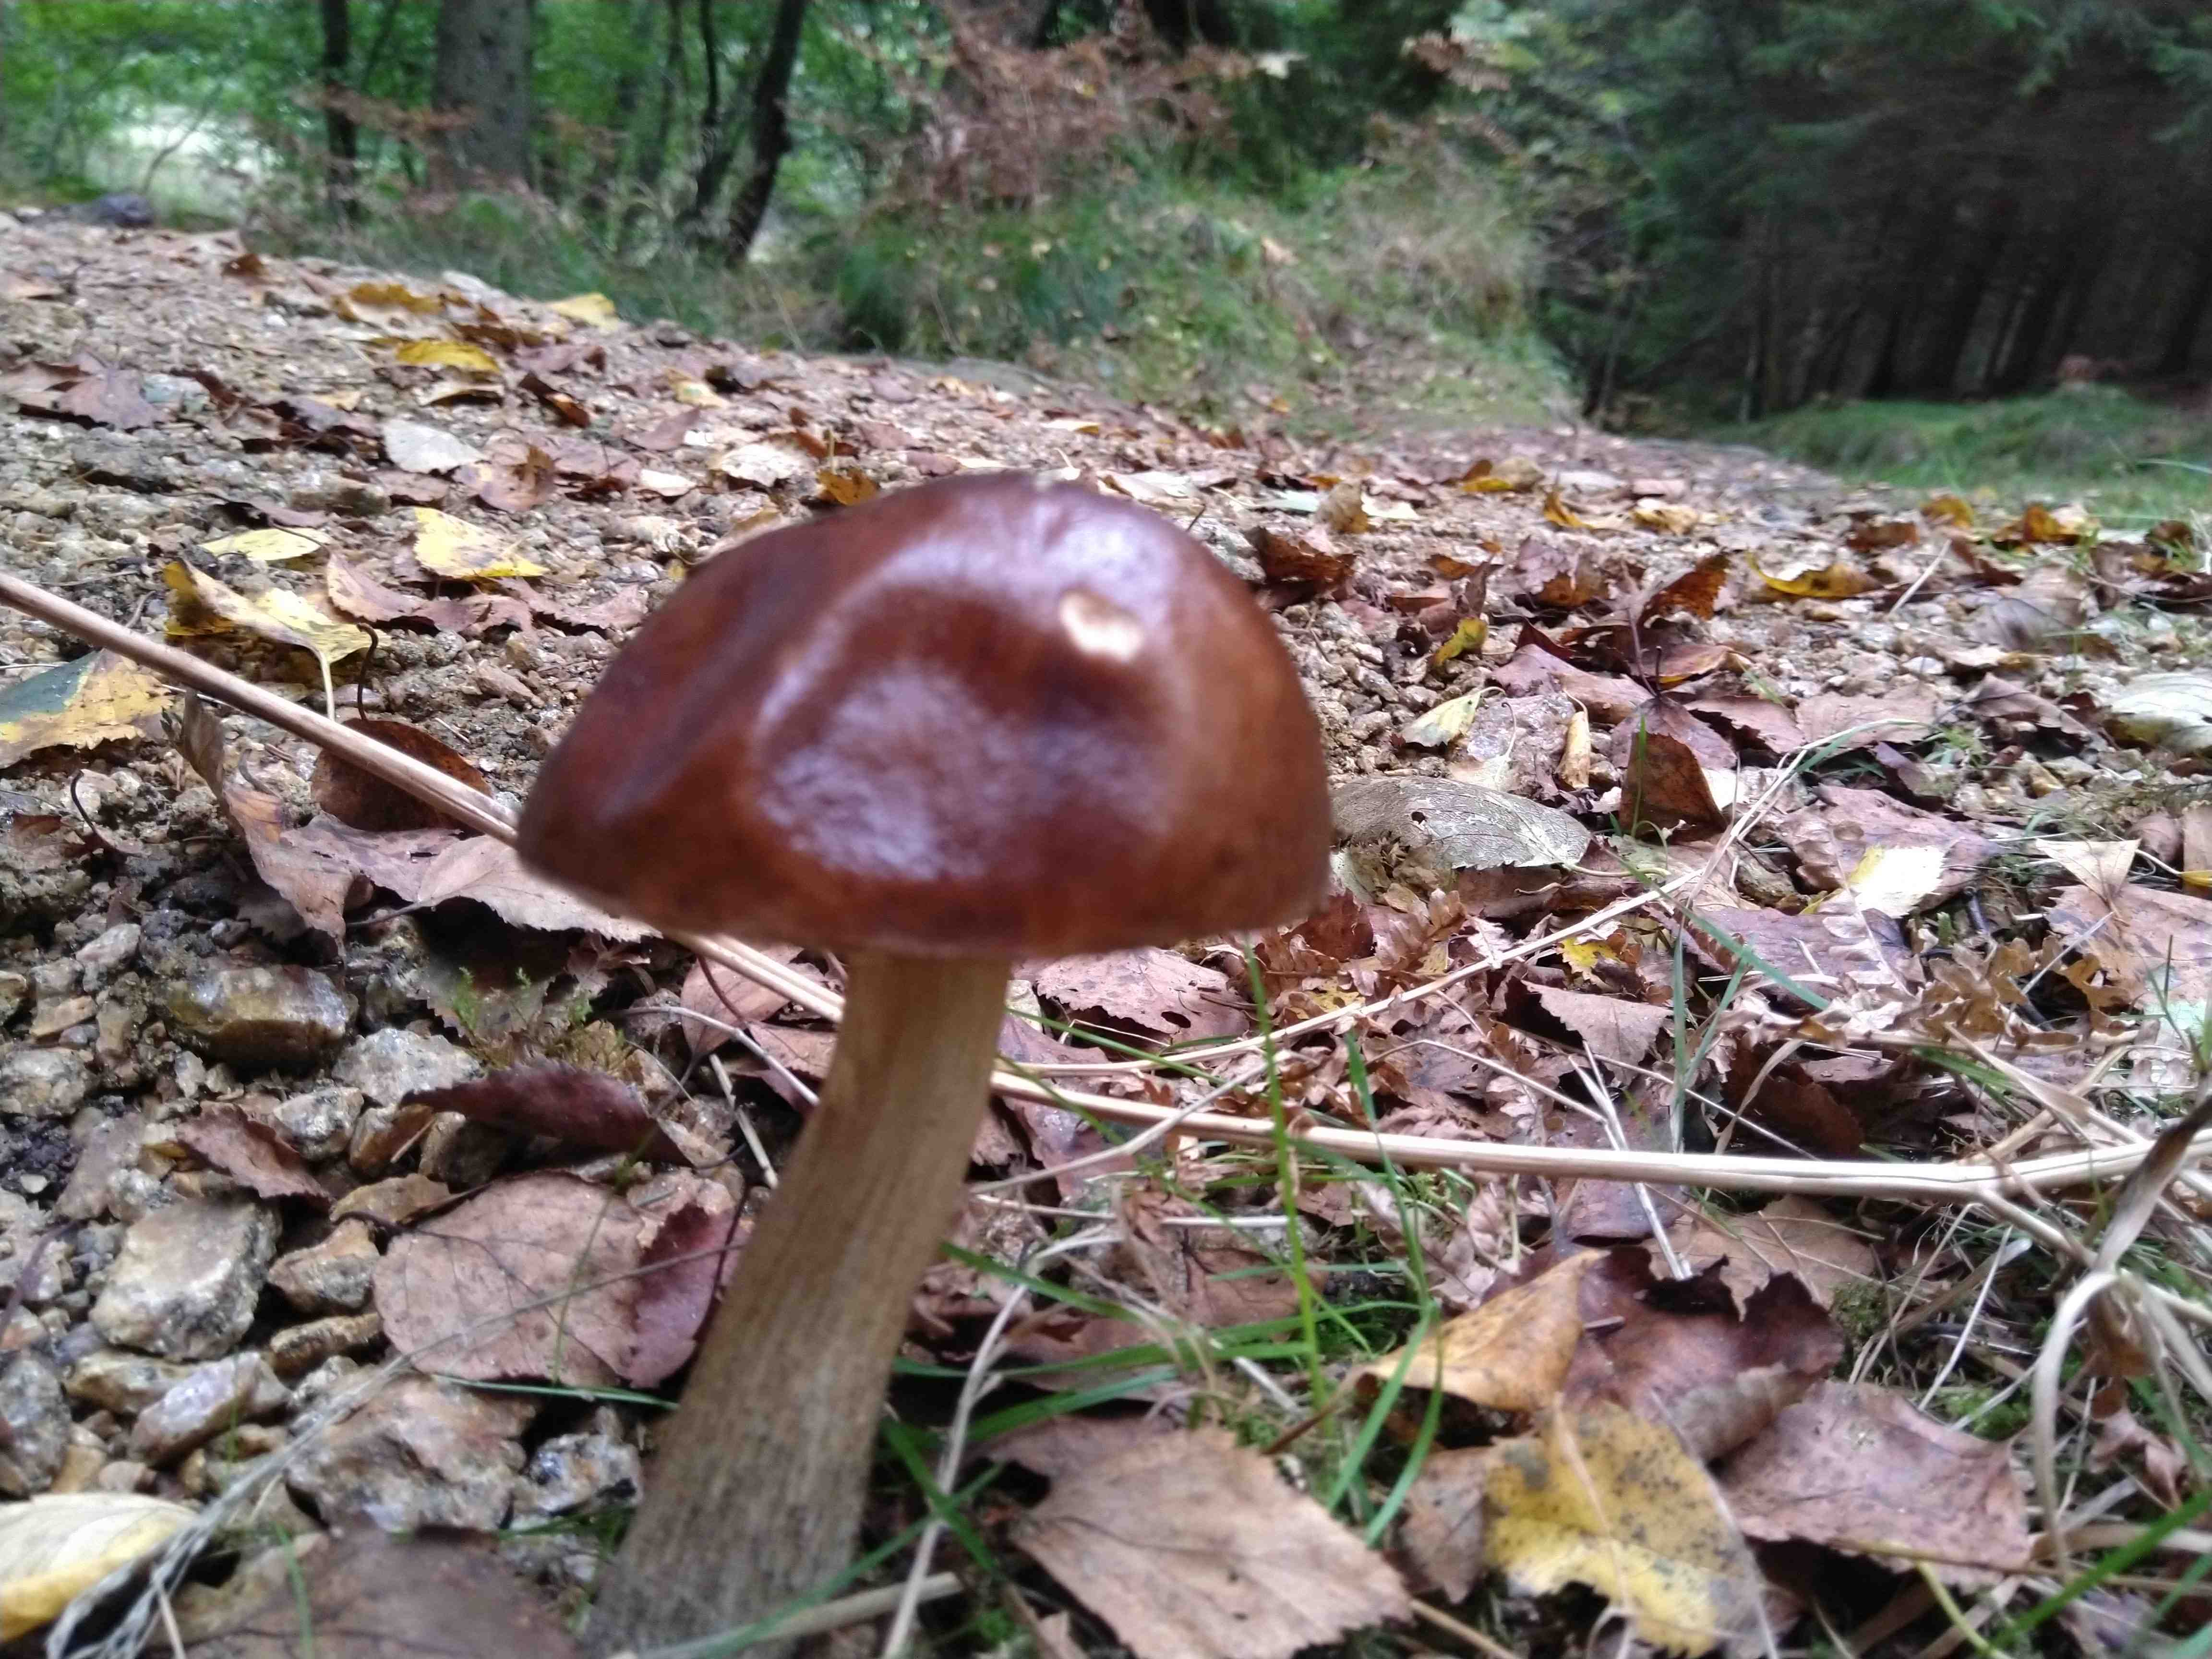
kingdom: Fungi
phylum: Basidiomycota
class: Agaricomycetes
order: Boletales
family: Boletaceae
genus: Leccinum
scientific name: Leccinum scabrum
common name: brun skælrørhat
